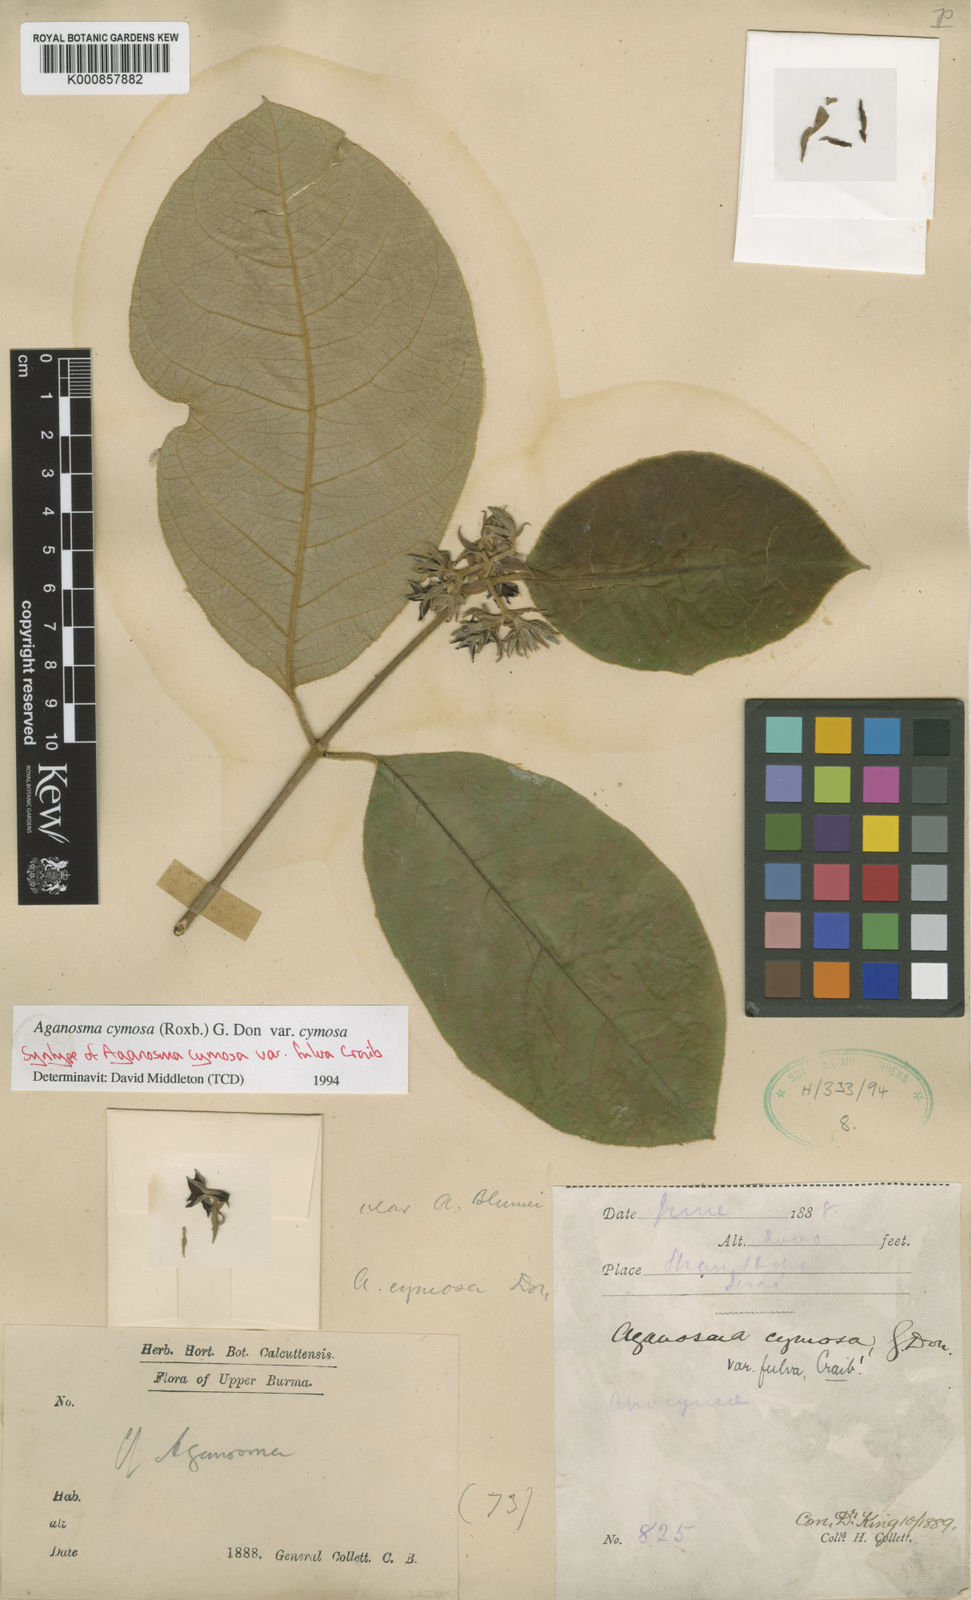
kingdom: Plantae
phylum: Tracheophyta
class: Magnoliopsida
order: Gentianales
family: Apocynaceae
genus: Aganosma
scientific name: Aganosma cymosa
